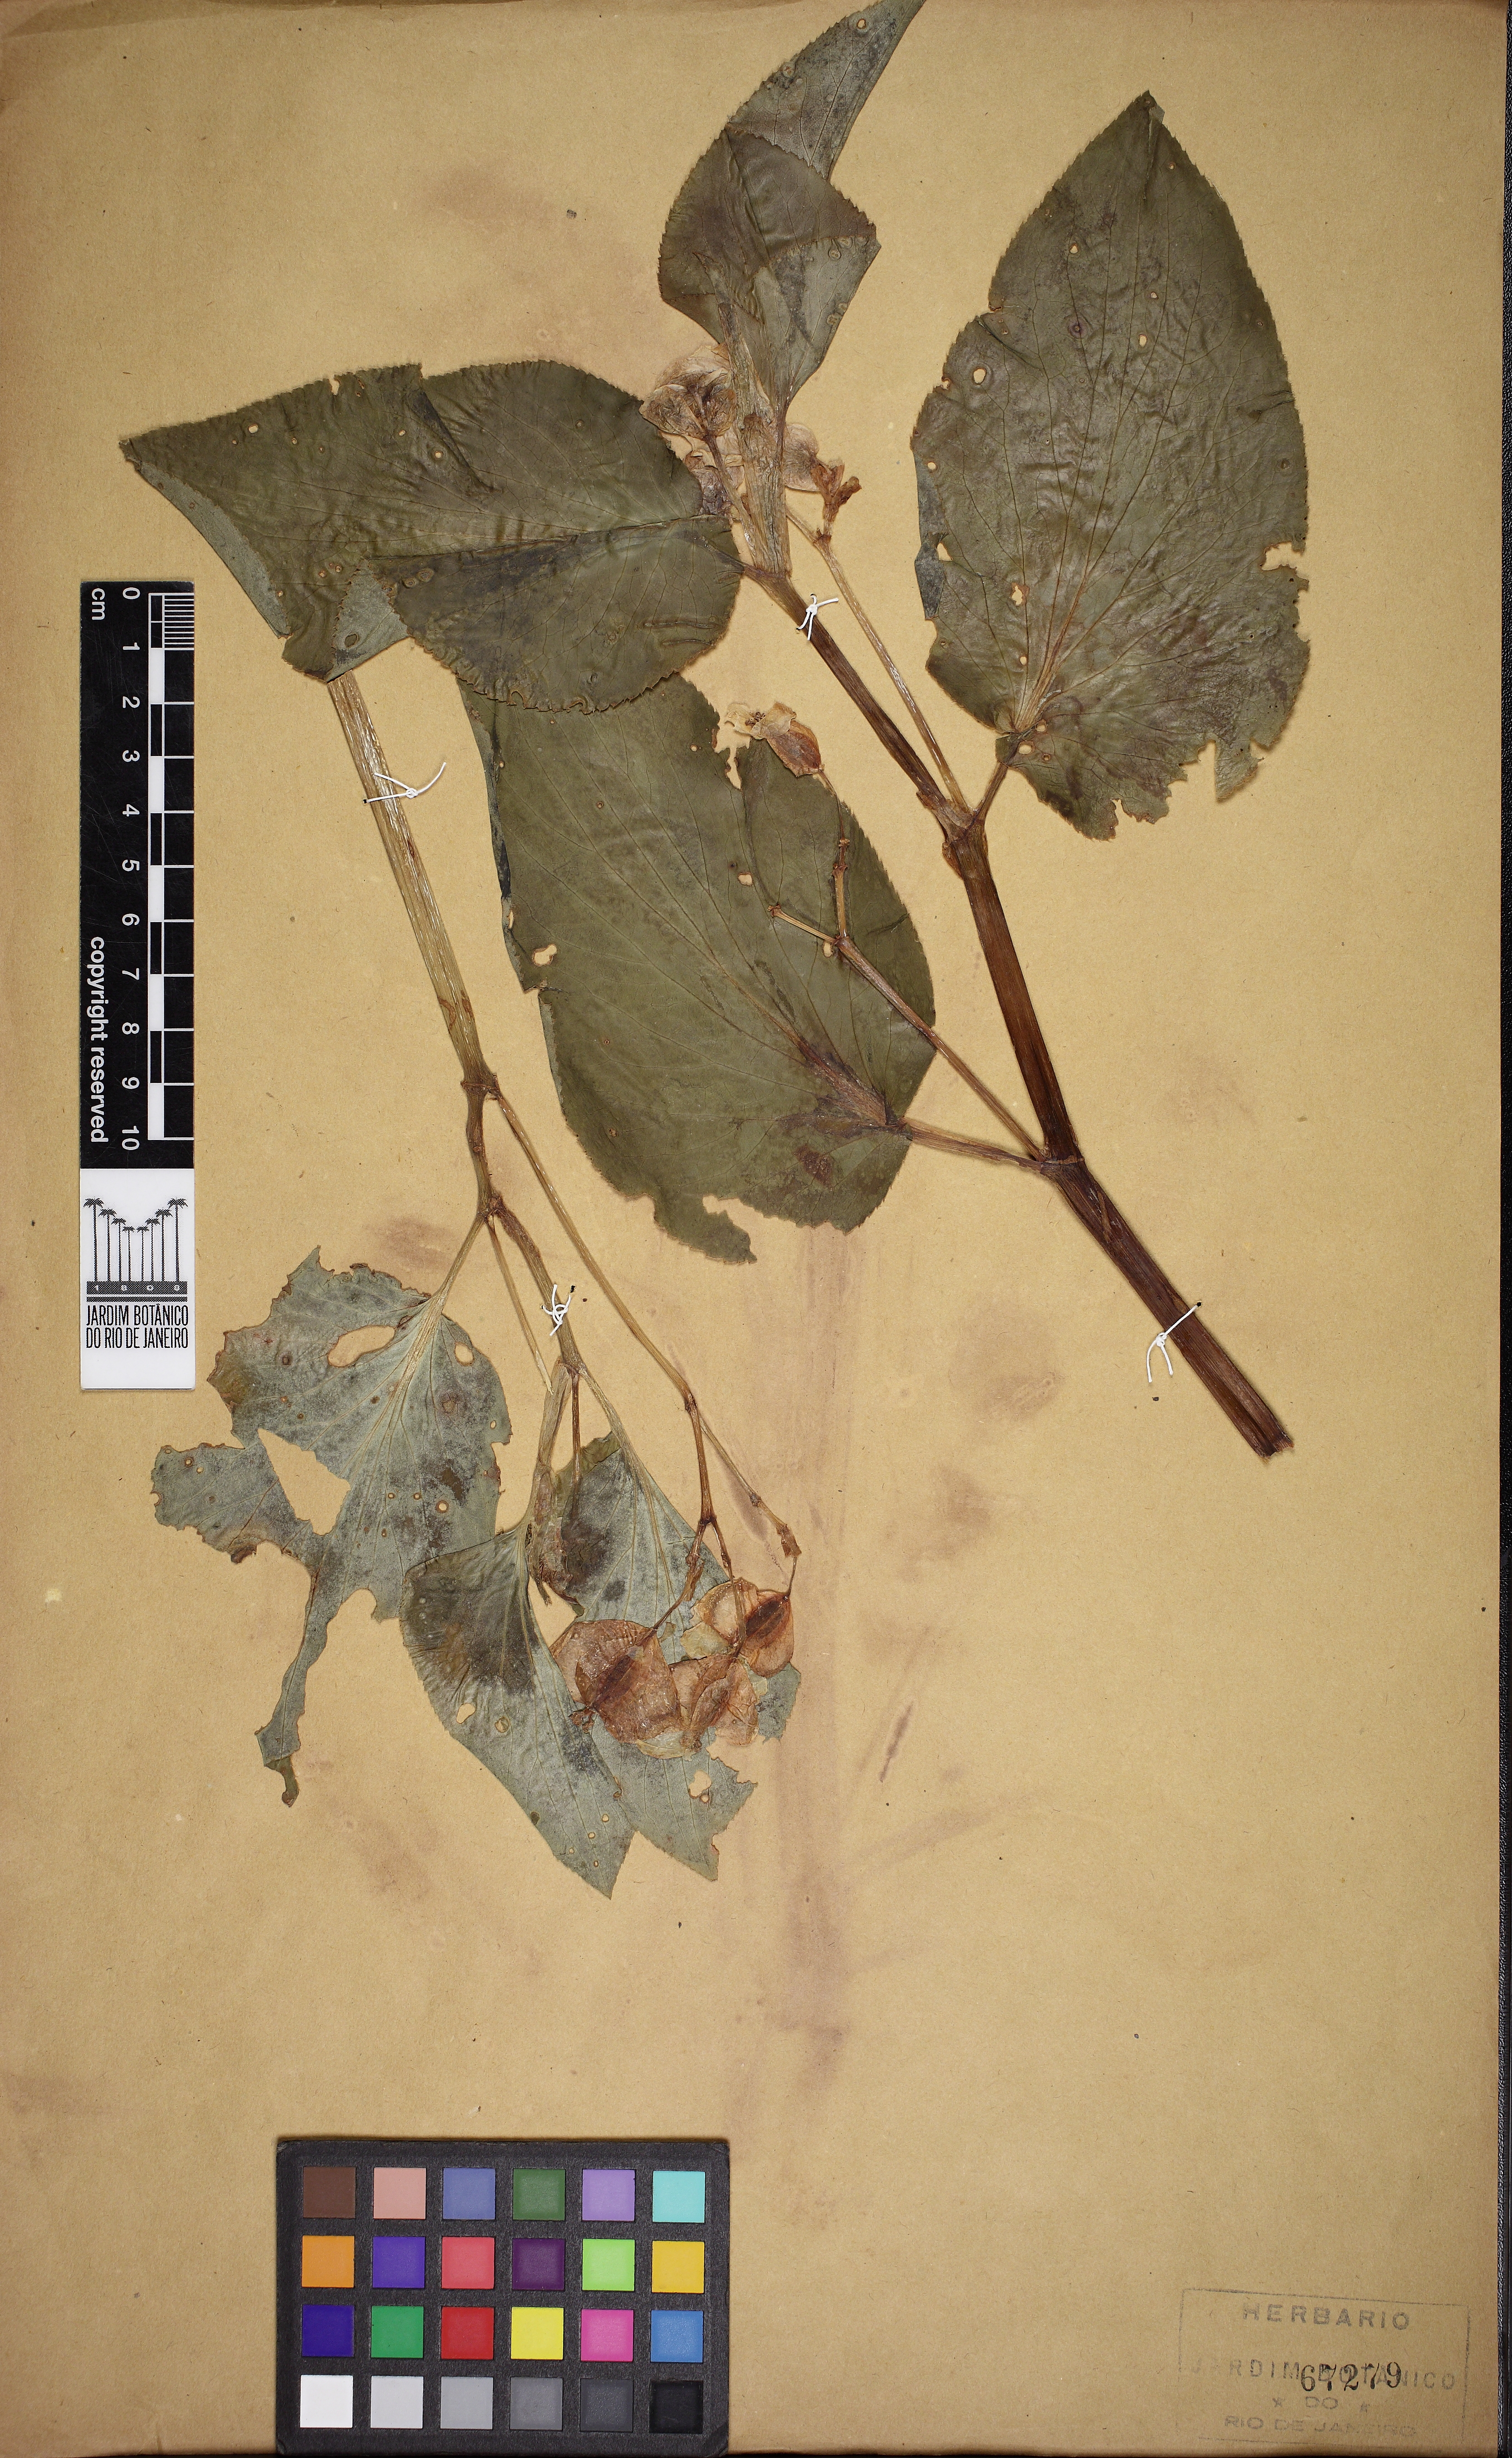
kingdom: Plantae
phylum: Tracheophyta
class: Magnoliopsida
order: Cucurbitales
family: Begoniaceae
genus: Begonia
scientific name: Begonia descoleana
